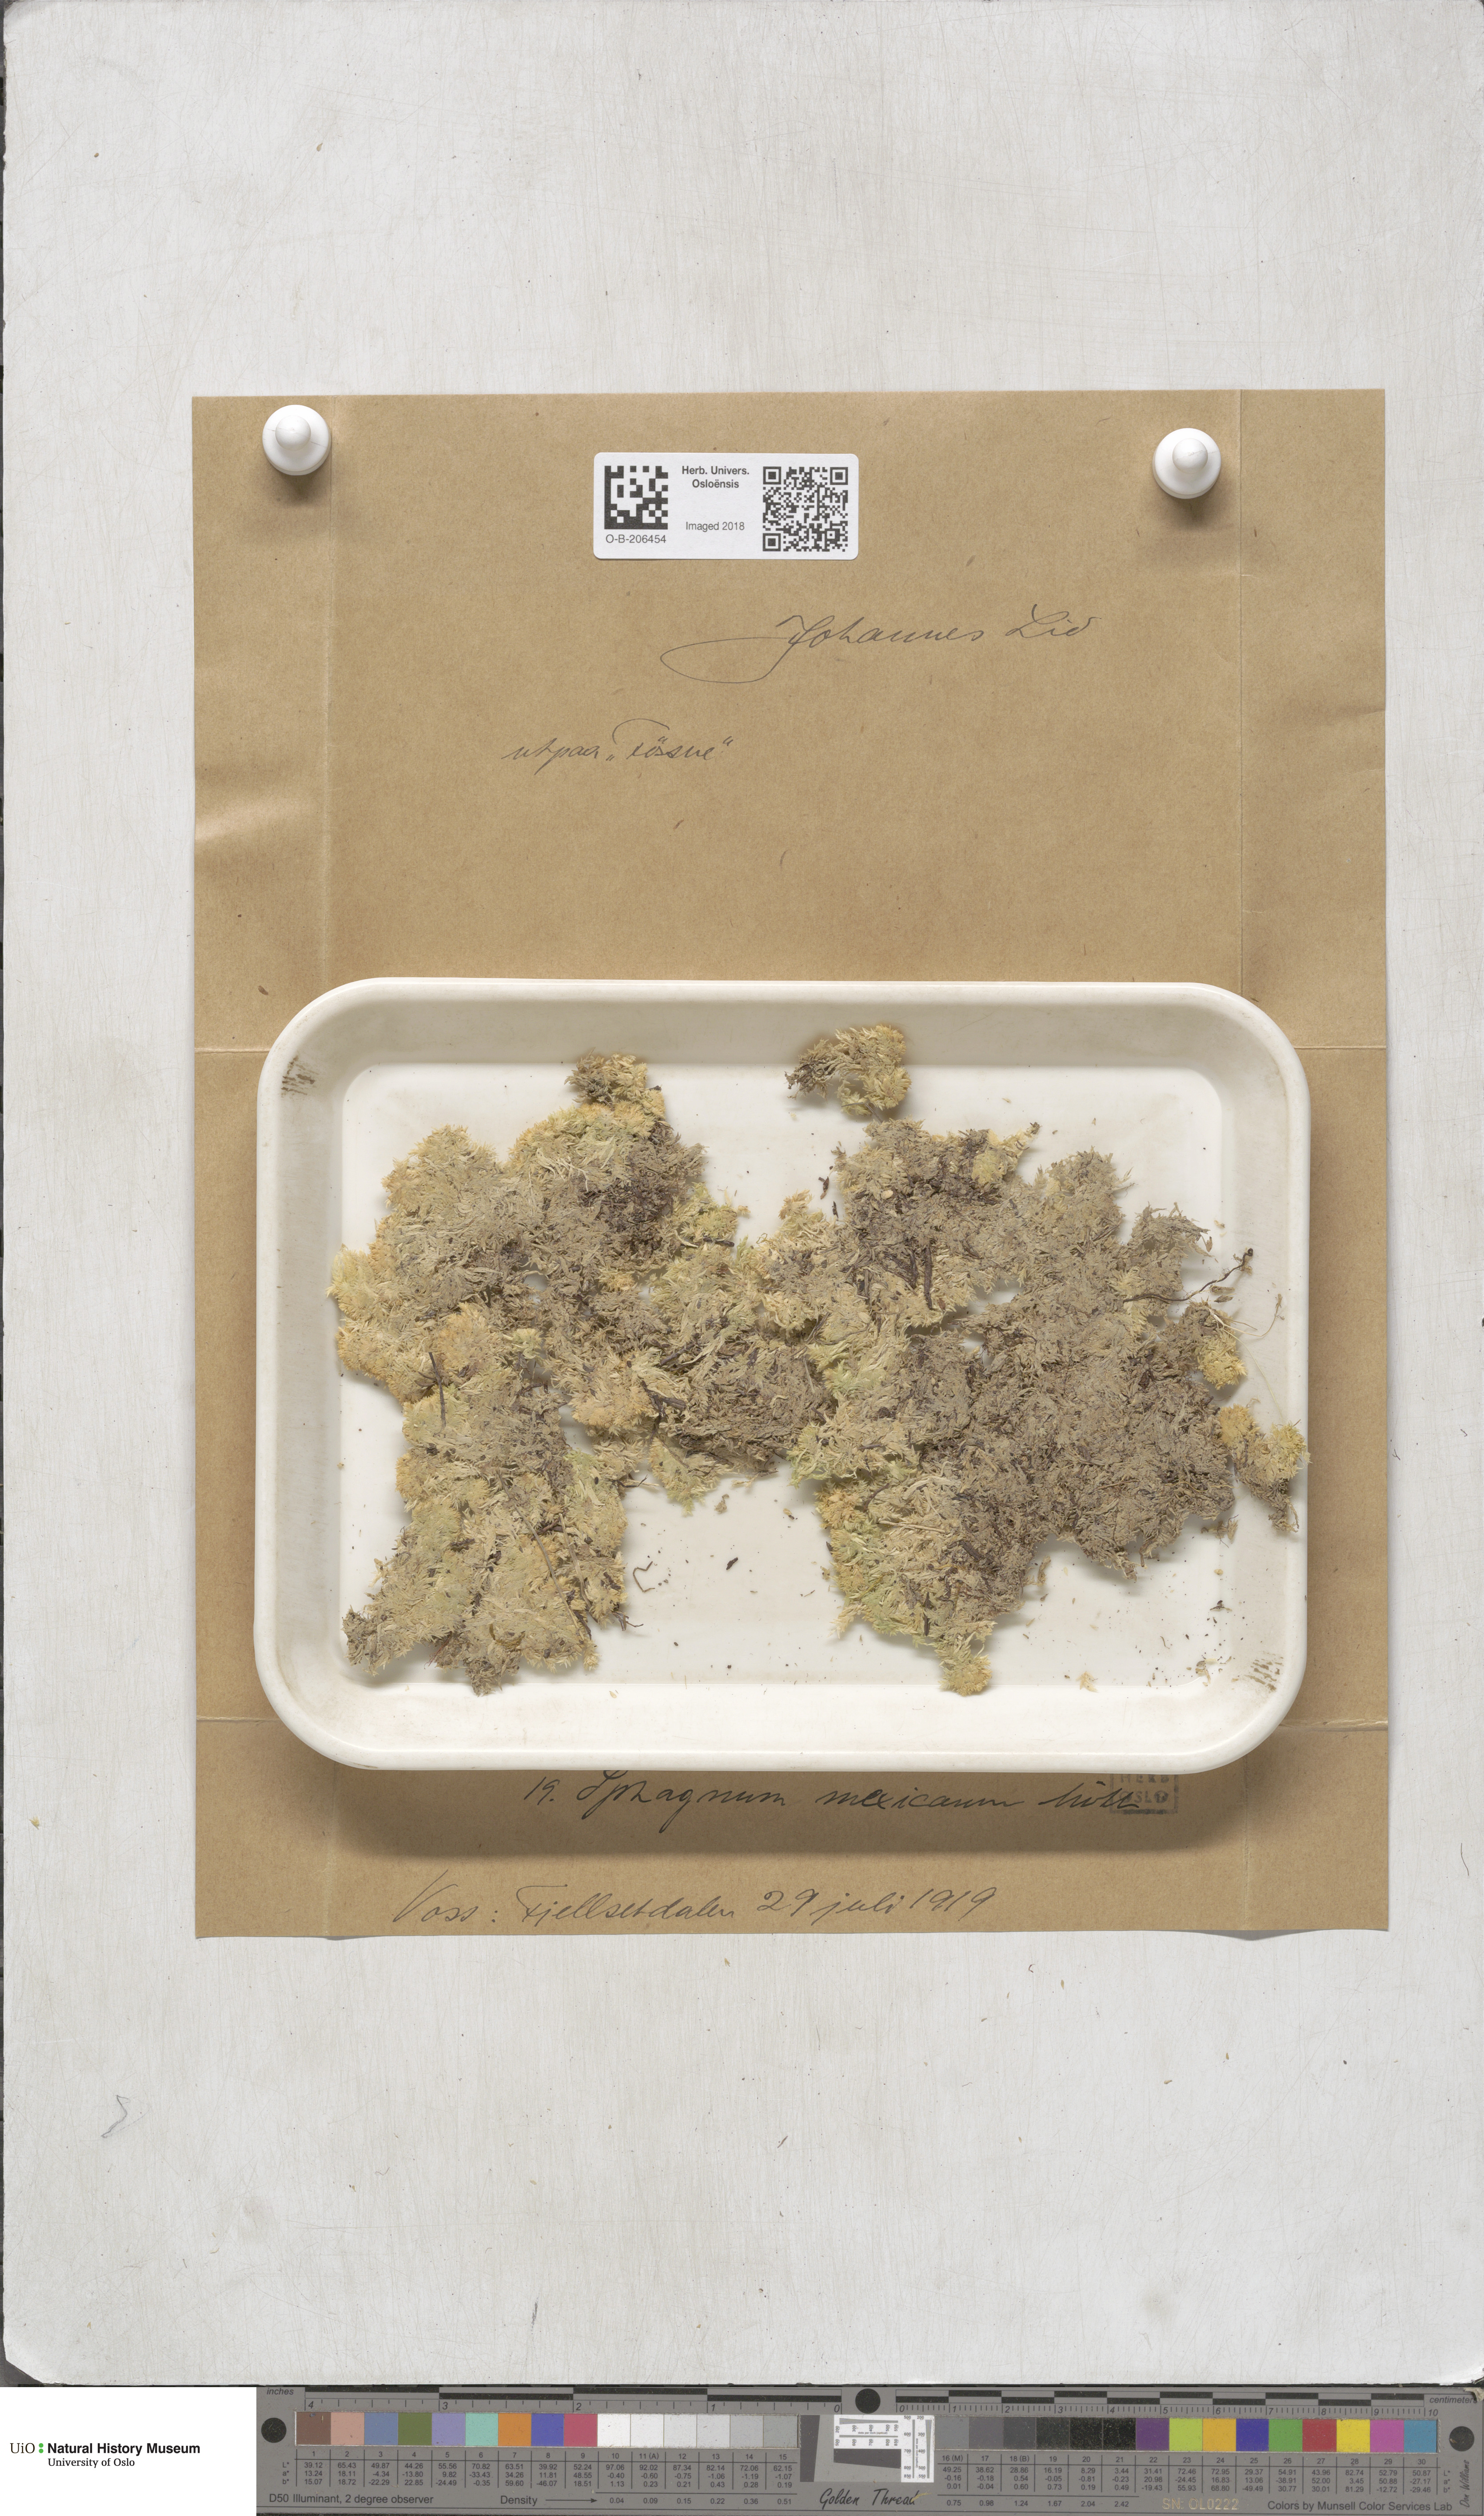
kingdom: Plantae
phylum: Bryophyta
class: Sphagnopsida
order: Sphagnales
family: Sphagnaceae
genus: Sphagnum
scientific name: Sphagnum strictum
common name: Pale bog-moss
